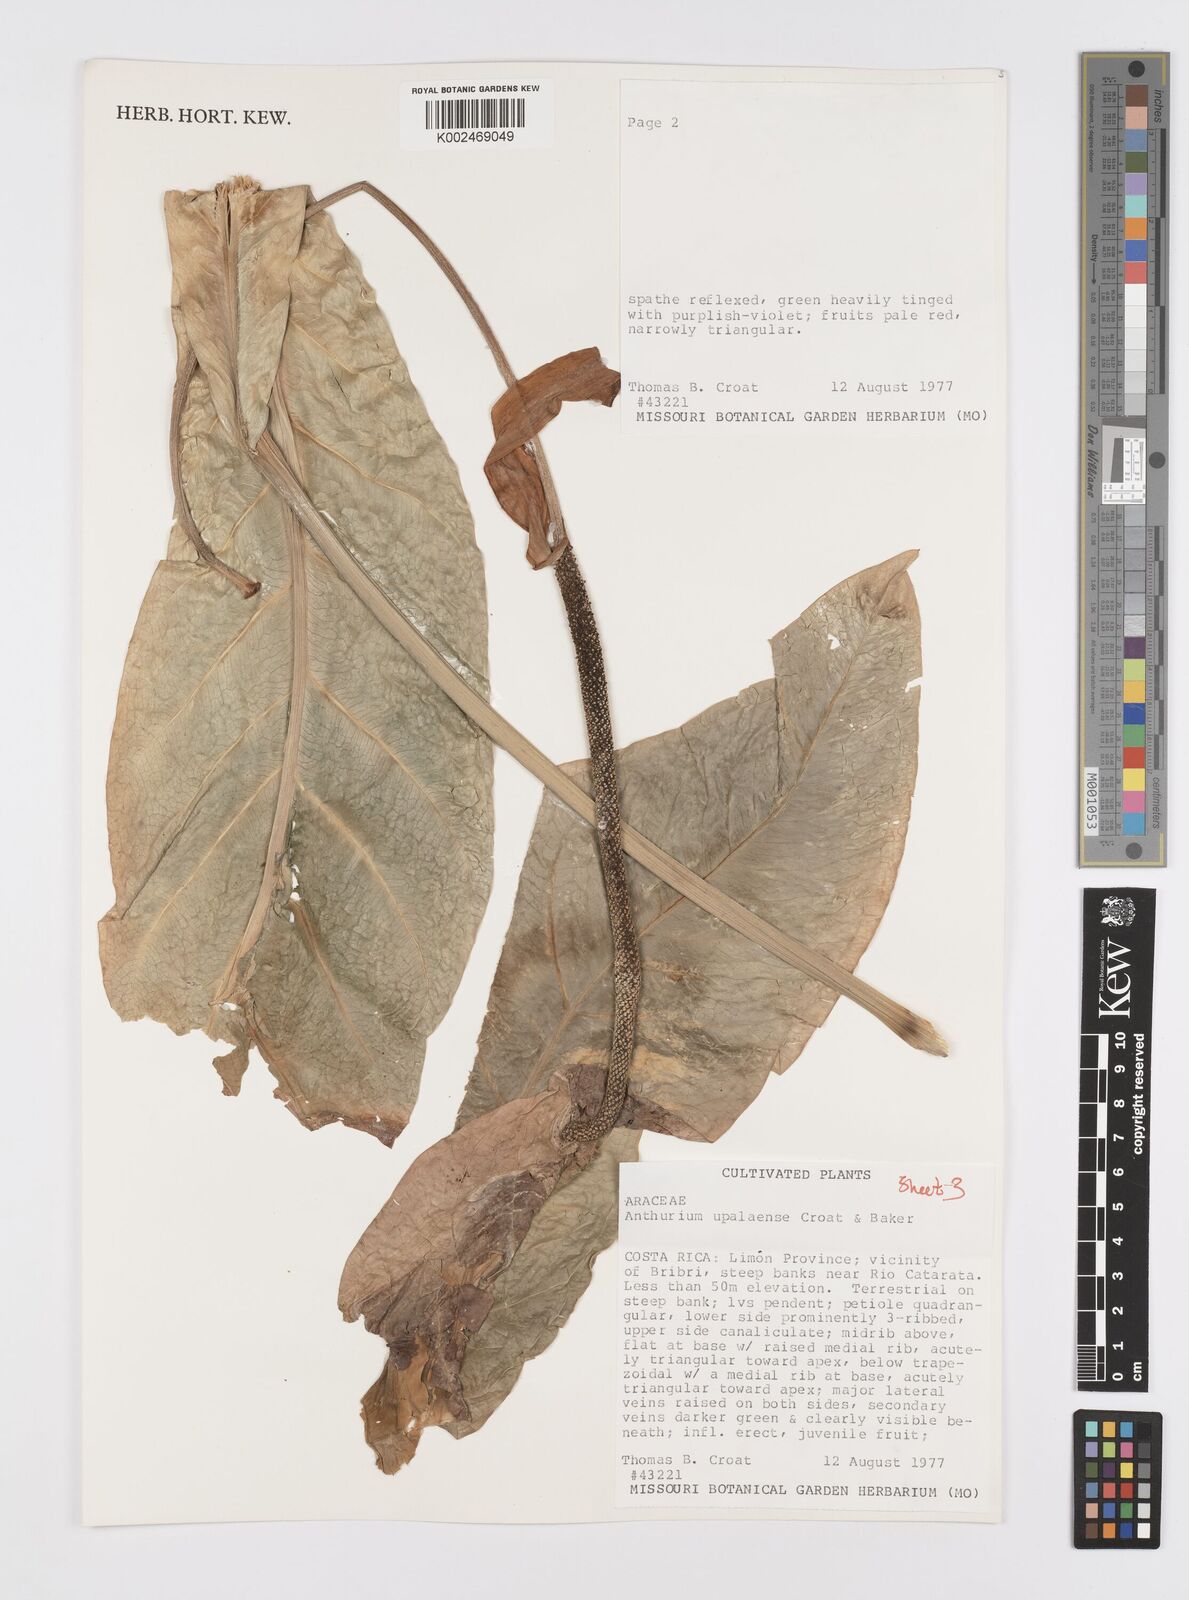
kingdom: Plantae
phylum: Tracheophyta
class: Liliopsida
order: Alismatales
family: Araceae
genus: Anthurium
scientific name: Anthurium upalaense
